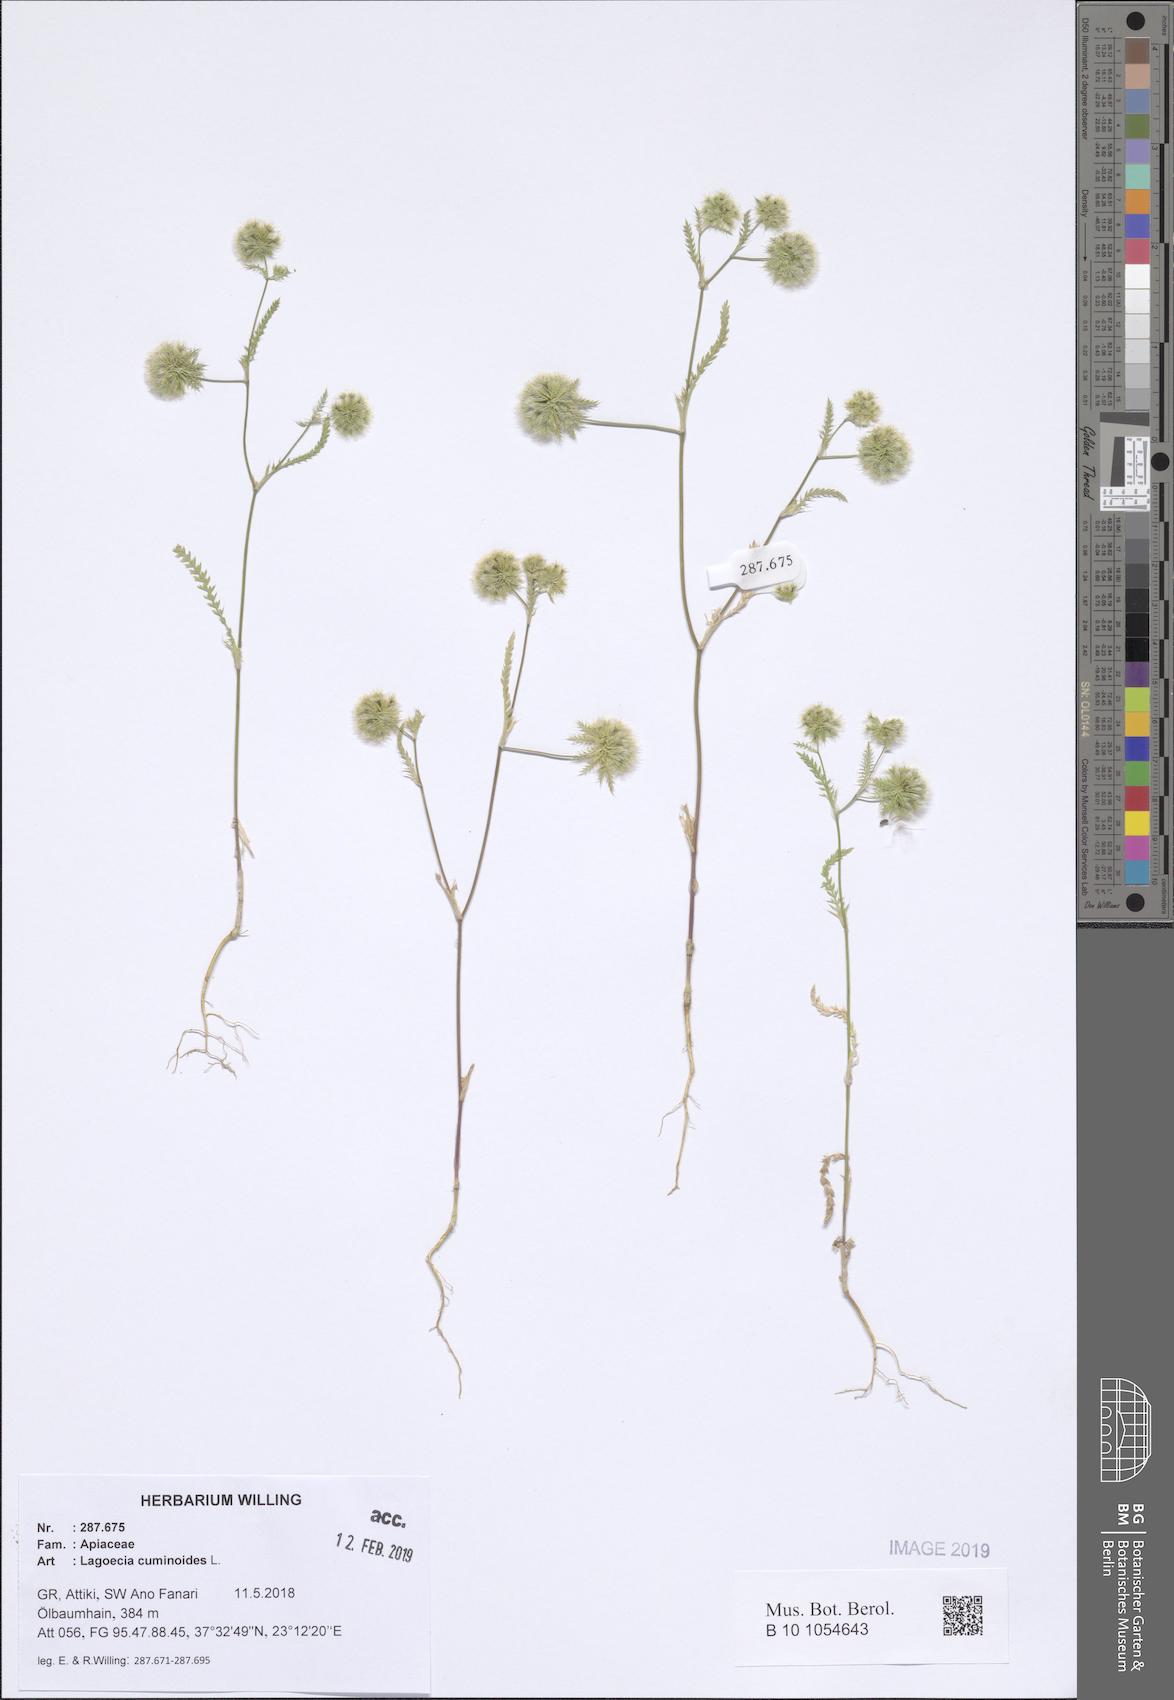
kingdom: Plantae
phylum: Tracheophyta
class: Magnoliopsida
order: Apiales
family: Apiaceae
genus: Lagoecia
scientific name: Lagoecia cuminoides
